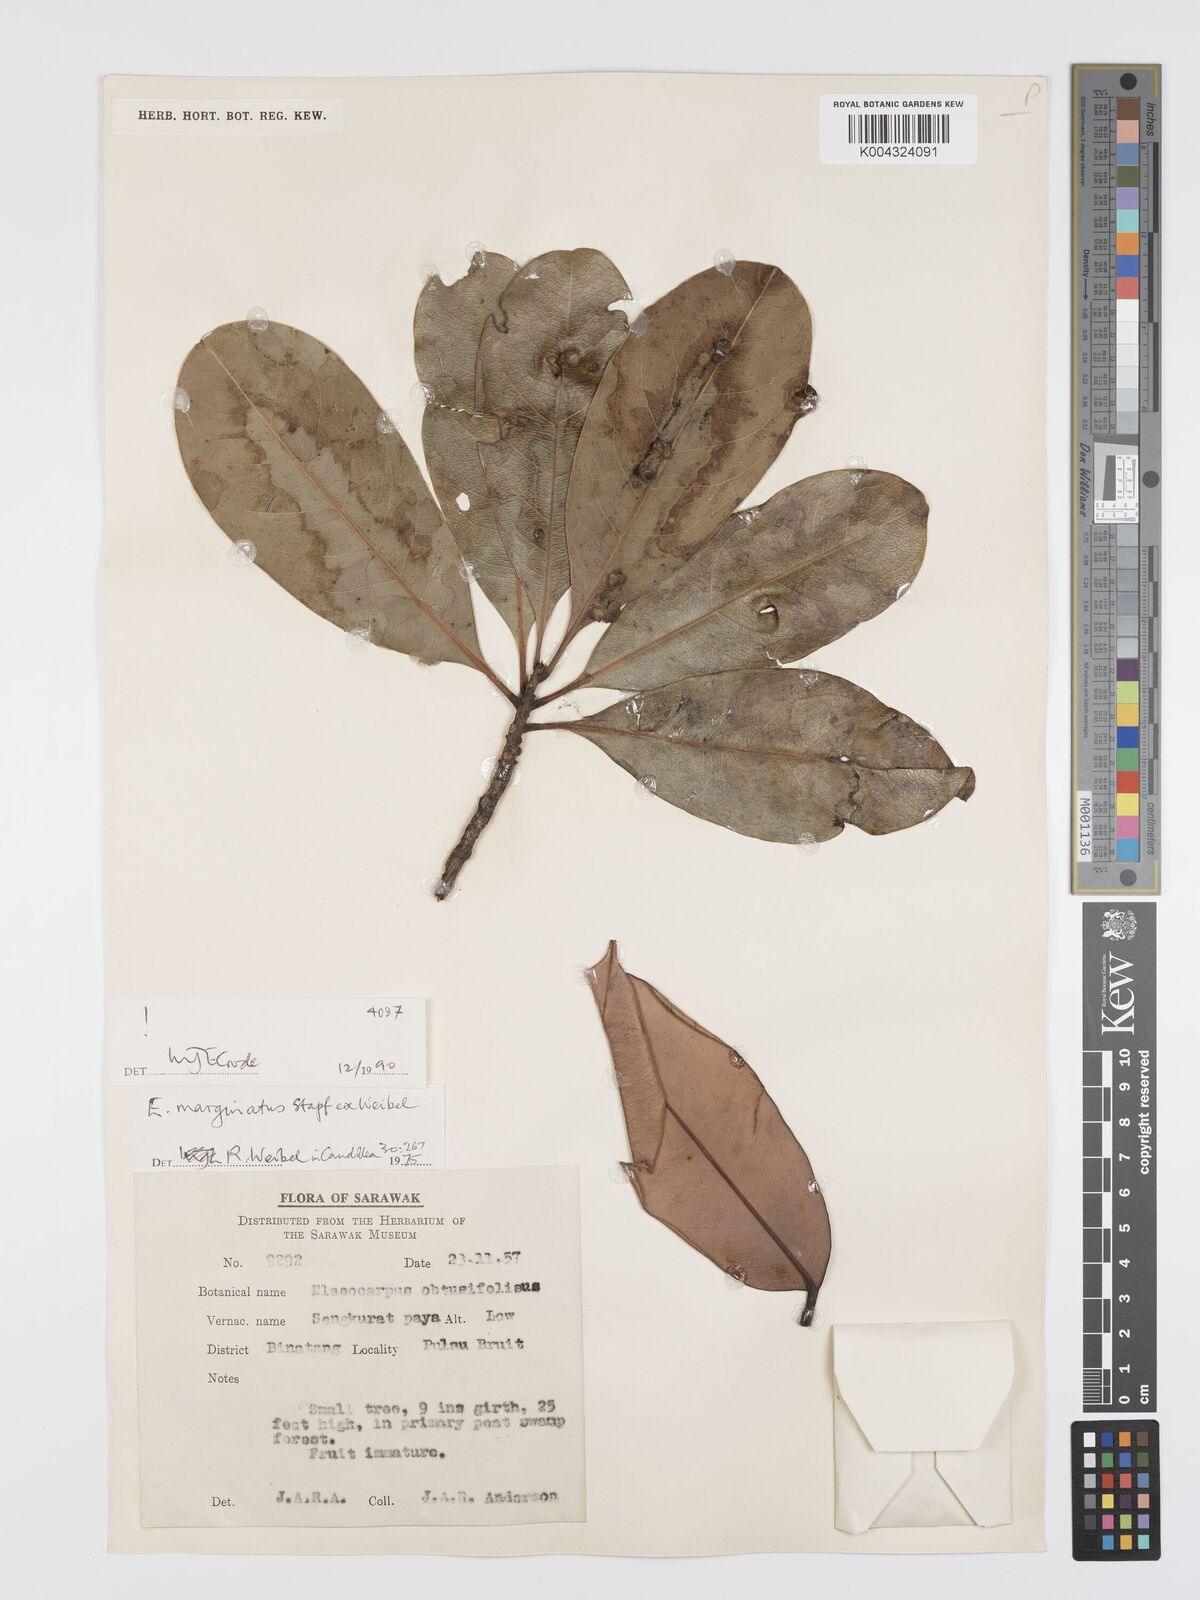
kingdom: Plantae
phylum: Tracheophyta
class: Magnoliopsida
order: Oxalidales
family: Elaeocarpaceae
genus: Elaeocarpus
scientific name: Elaeocarpus marginatus
